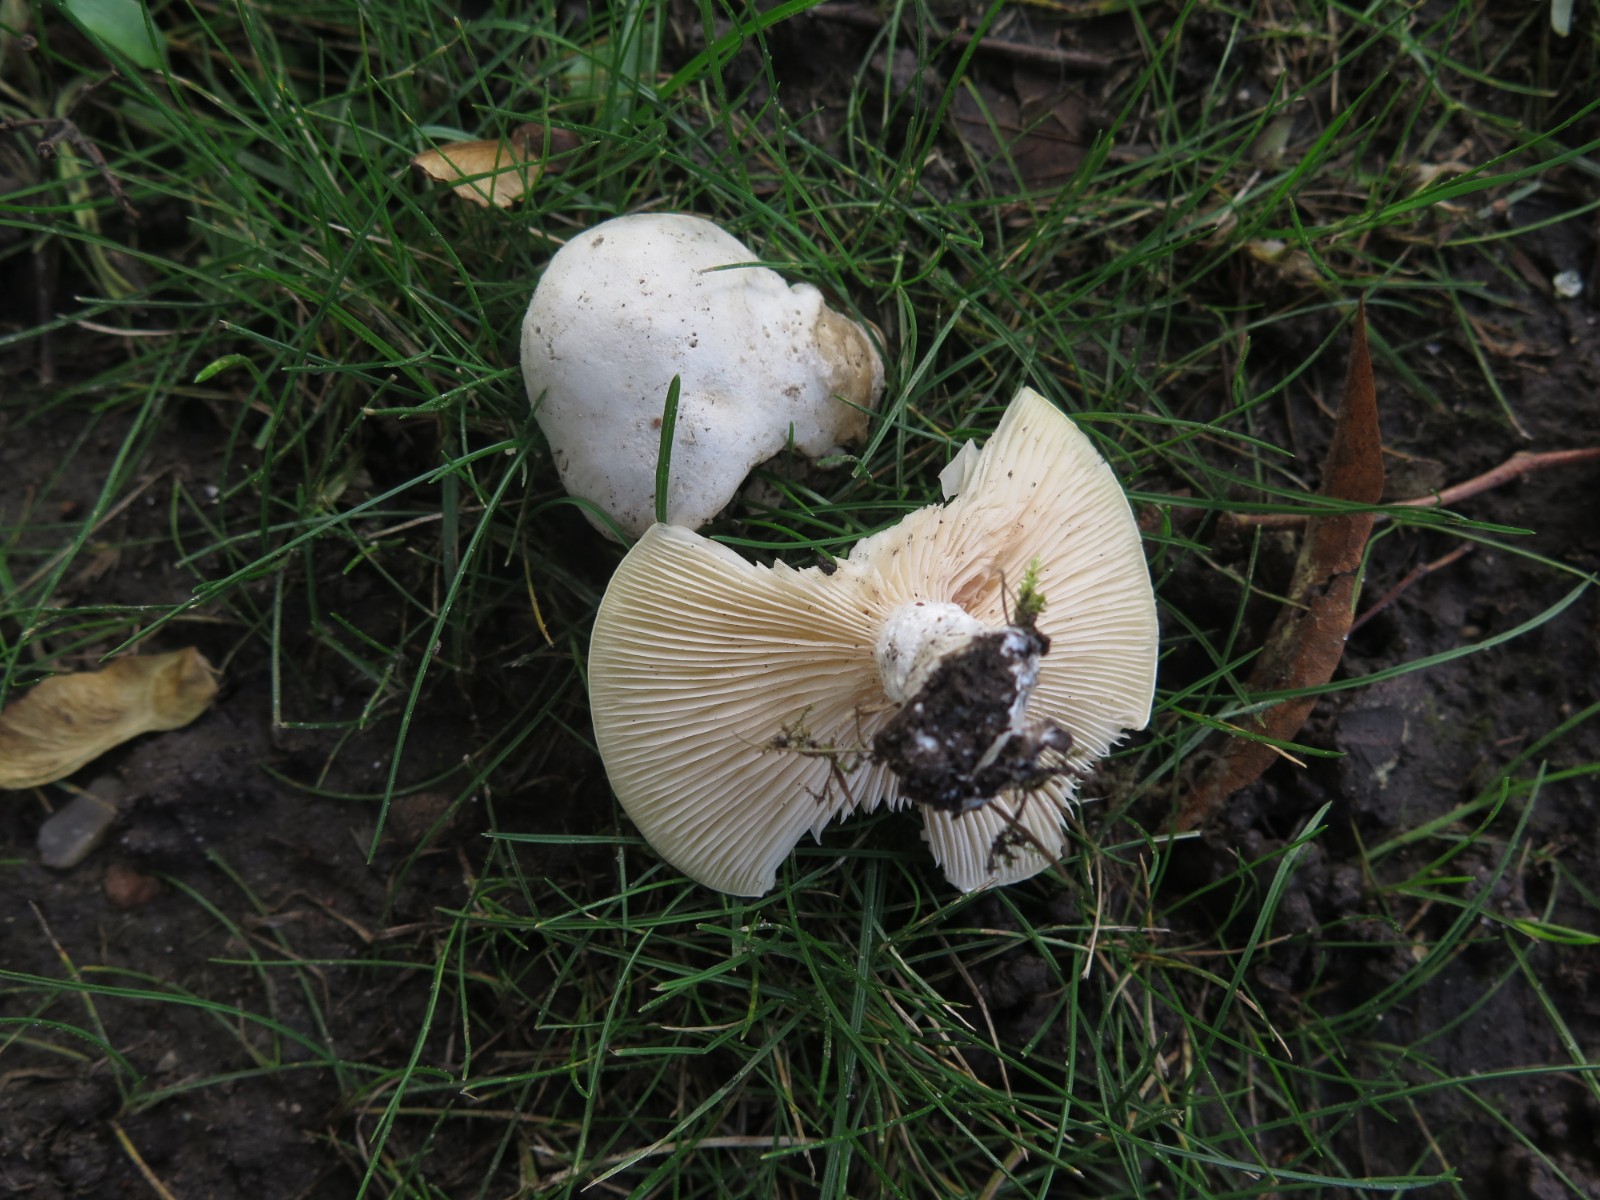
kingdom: Fungi
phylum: Basidiomycota
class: Agaricomycetes
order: Agaricales
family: Entolomataceae
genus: Clitopilus
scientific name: Clitopilus prunulus
